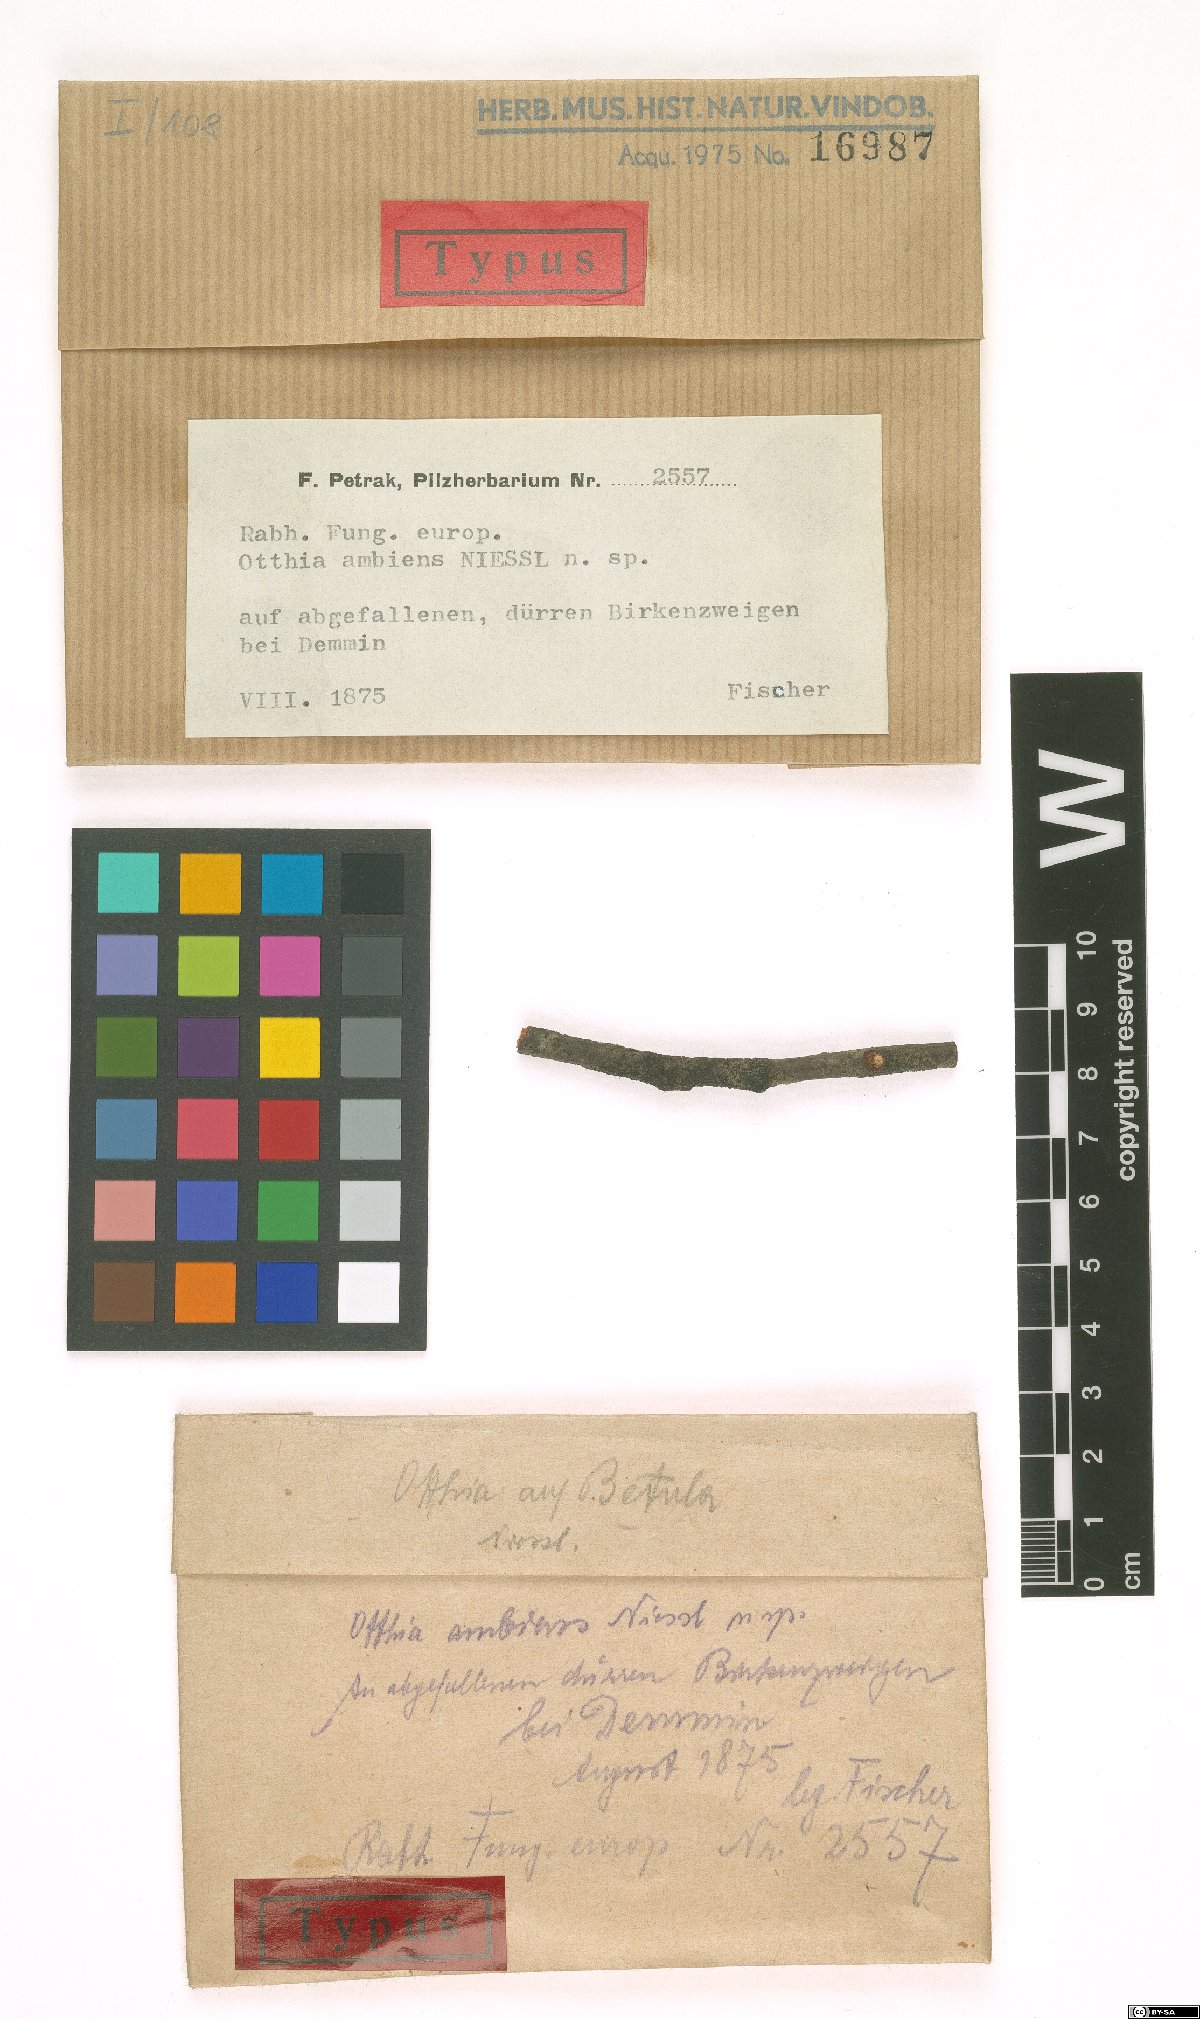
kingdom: Fungi
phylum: Ascomycota
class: Sordariomycetes
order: Amphisphaeriales
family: Amphisphaeriaceae
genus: Amphisphaeria
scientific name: Amphisphaeria ambiens
